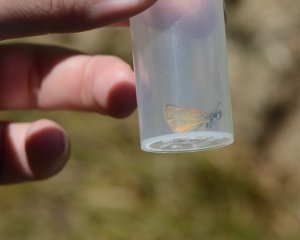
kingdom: Animalia
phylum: Arthropoda
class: Insecta
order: Lepidoptera
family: Hesperiidae
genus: Thymelicus
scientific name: Thymelicus lineola
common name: European Skipper
